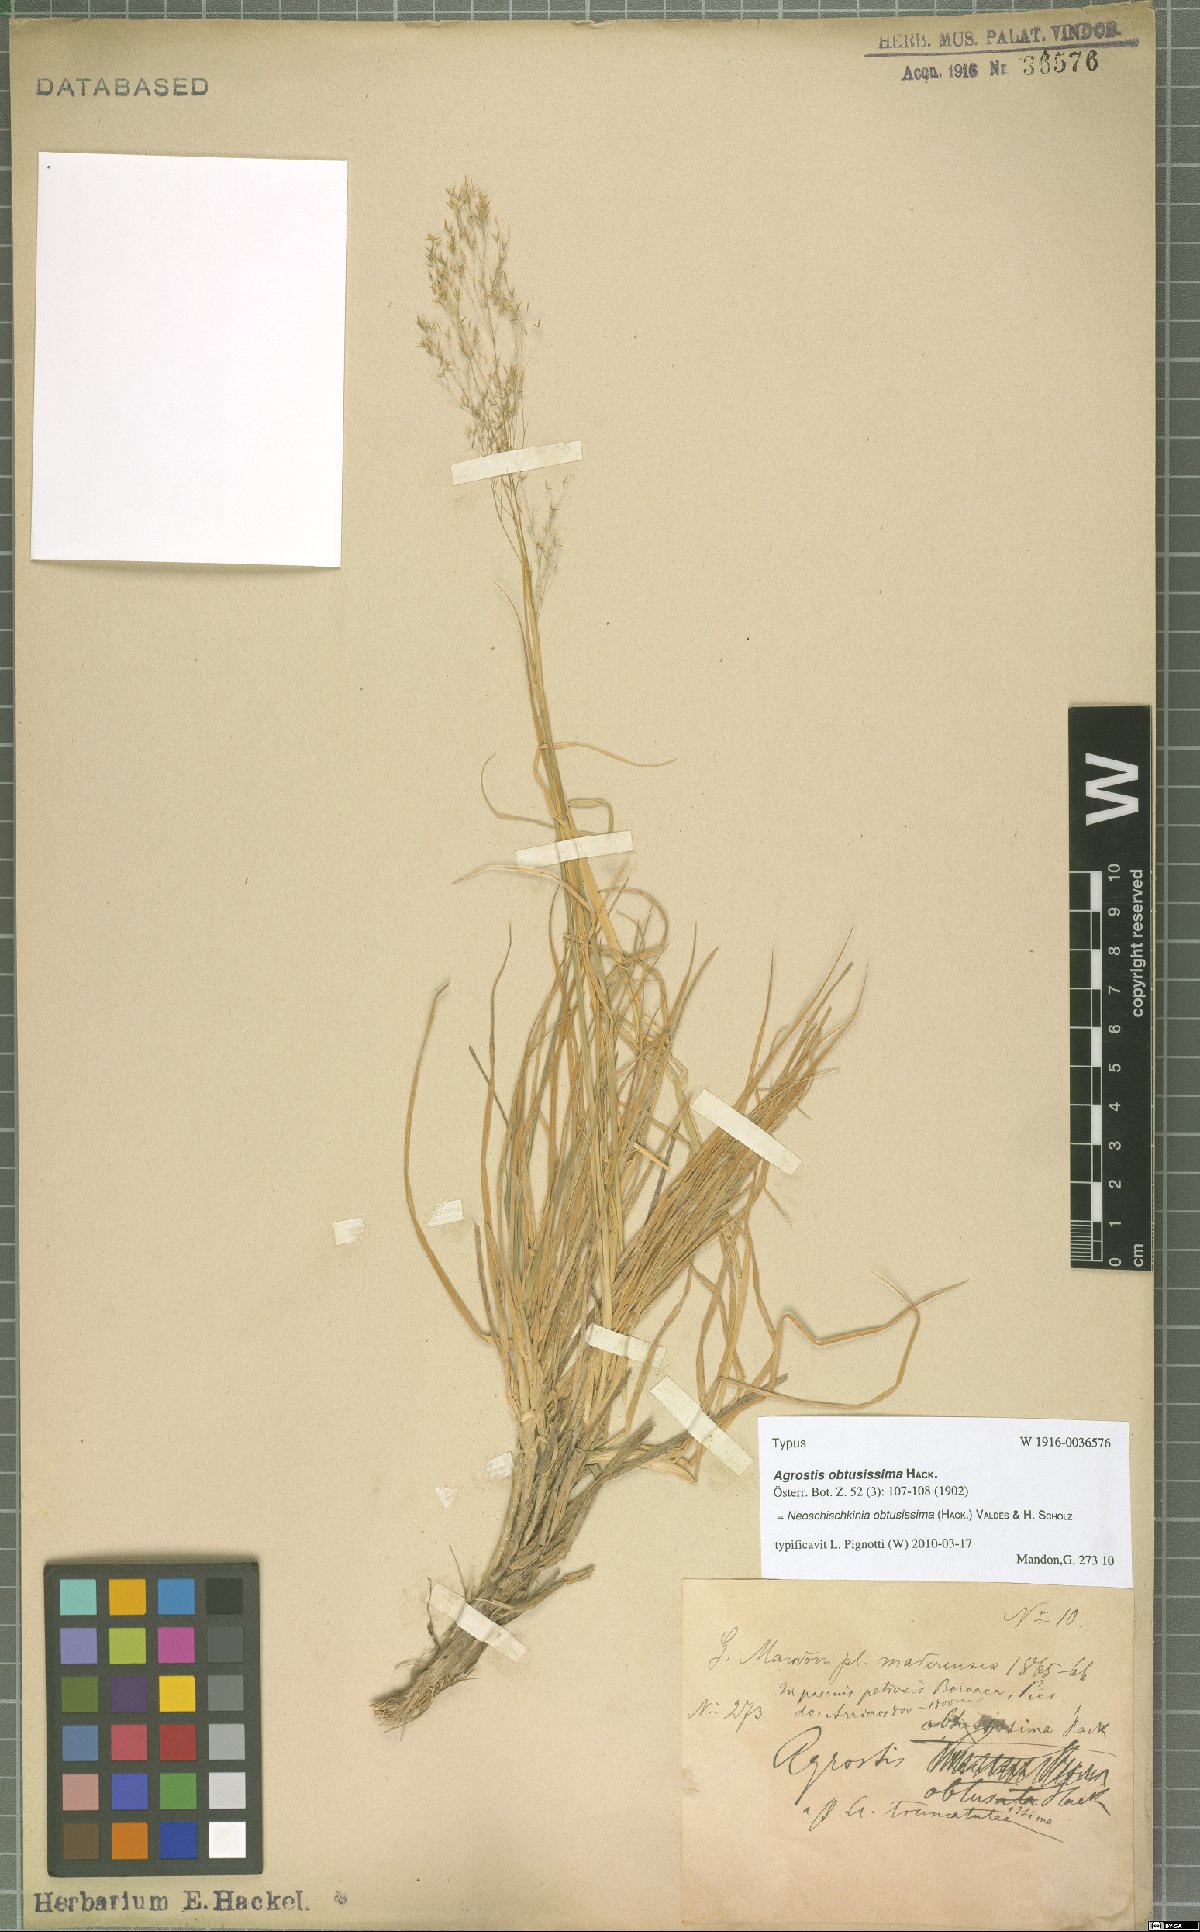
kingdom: Plantae
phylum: Tracheophyta
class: Liliopsida
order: Poales
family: Poaceae
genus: Agrostis
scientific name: Agrostis reuteri
